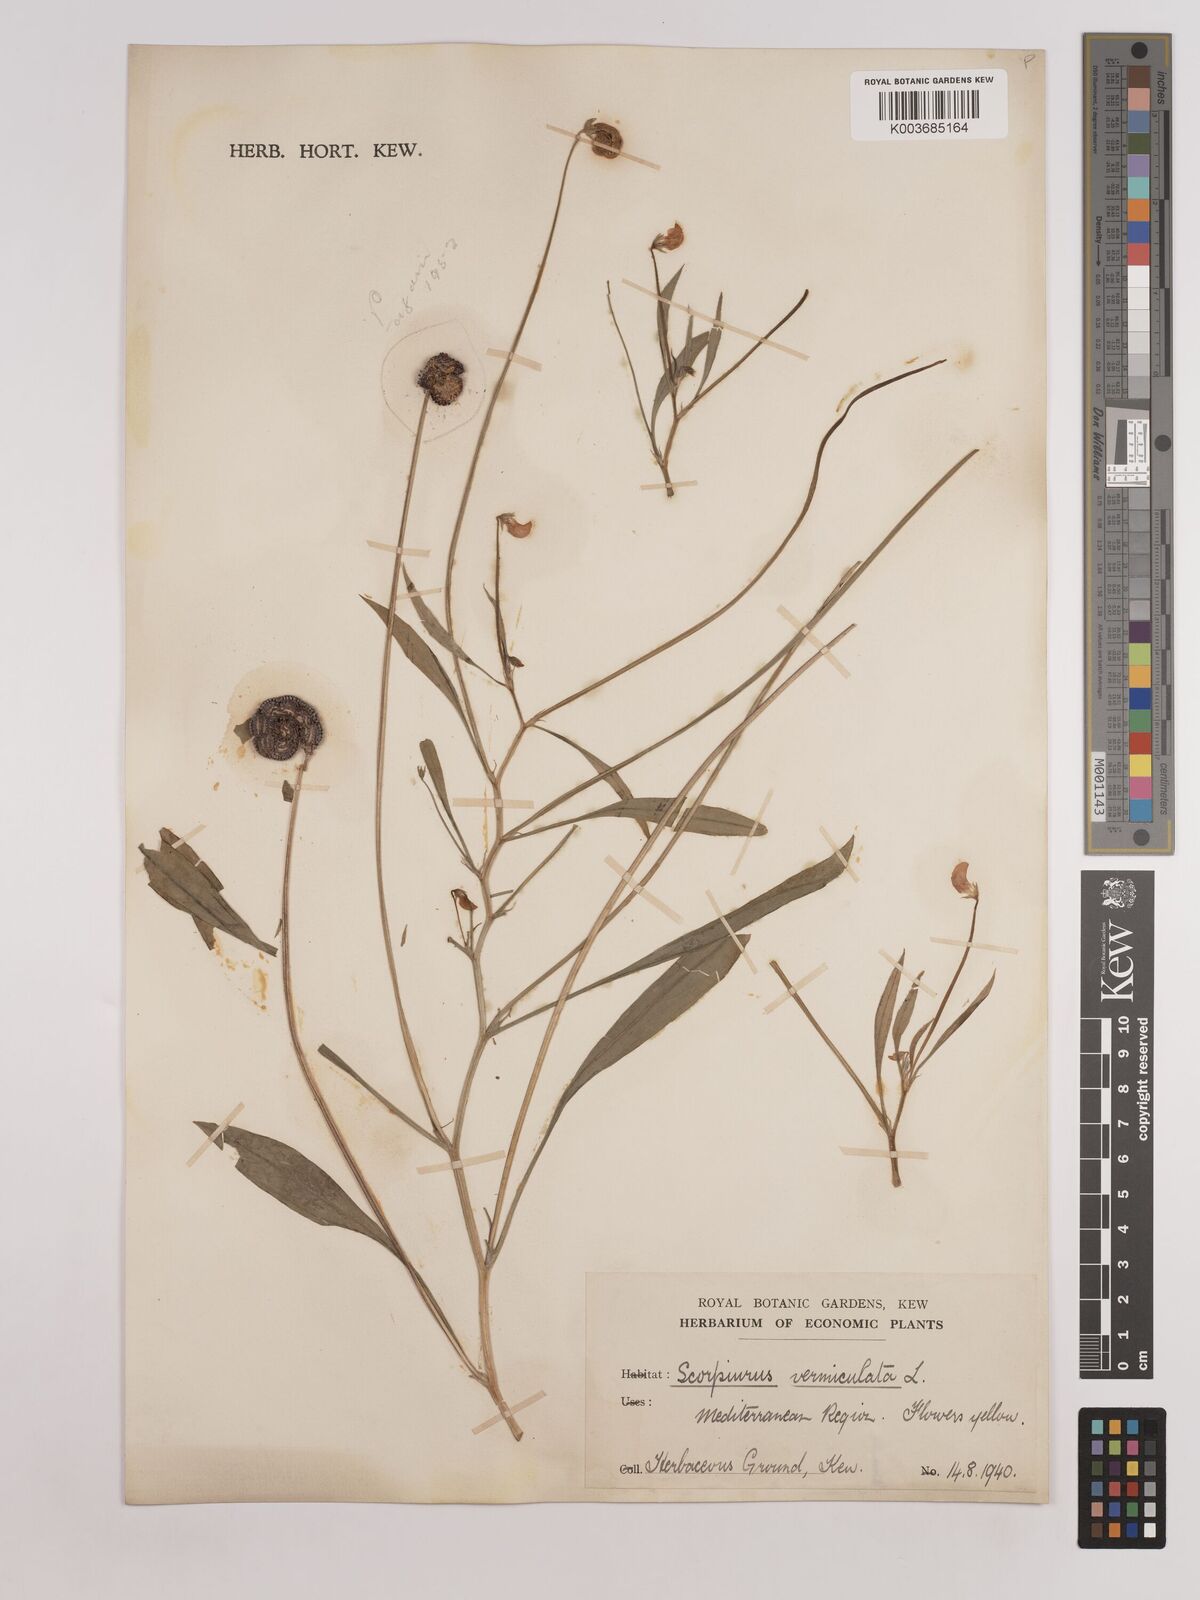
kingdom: Plantae
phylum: Tracheophyta
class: Magnoliopsida
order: Fabales
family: Fabaceae
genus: Scorpiurus
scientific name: Scorpiurus vermiculatus
